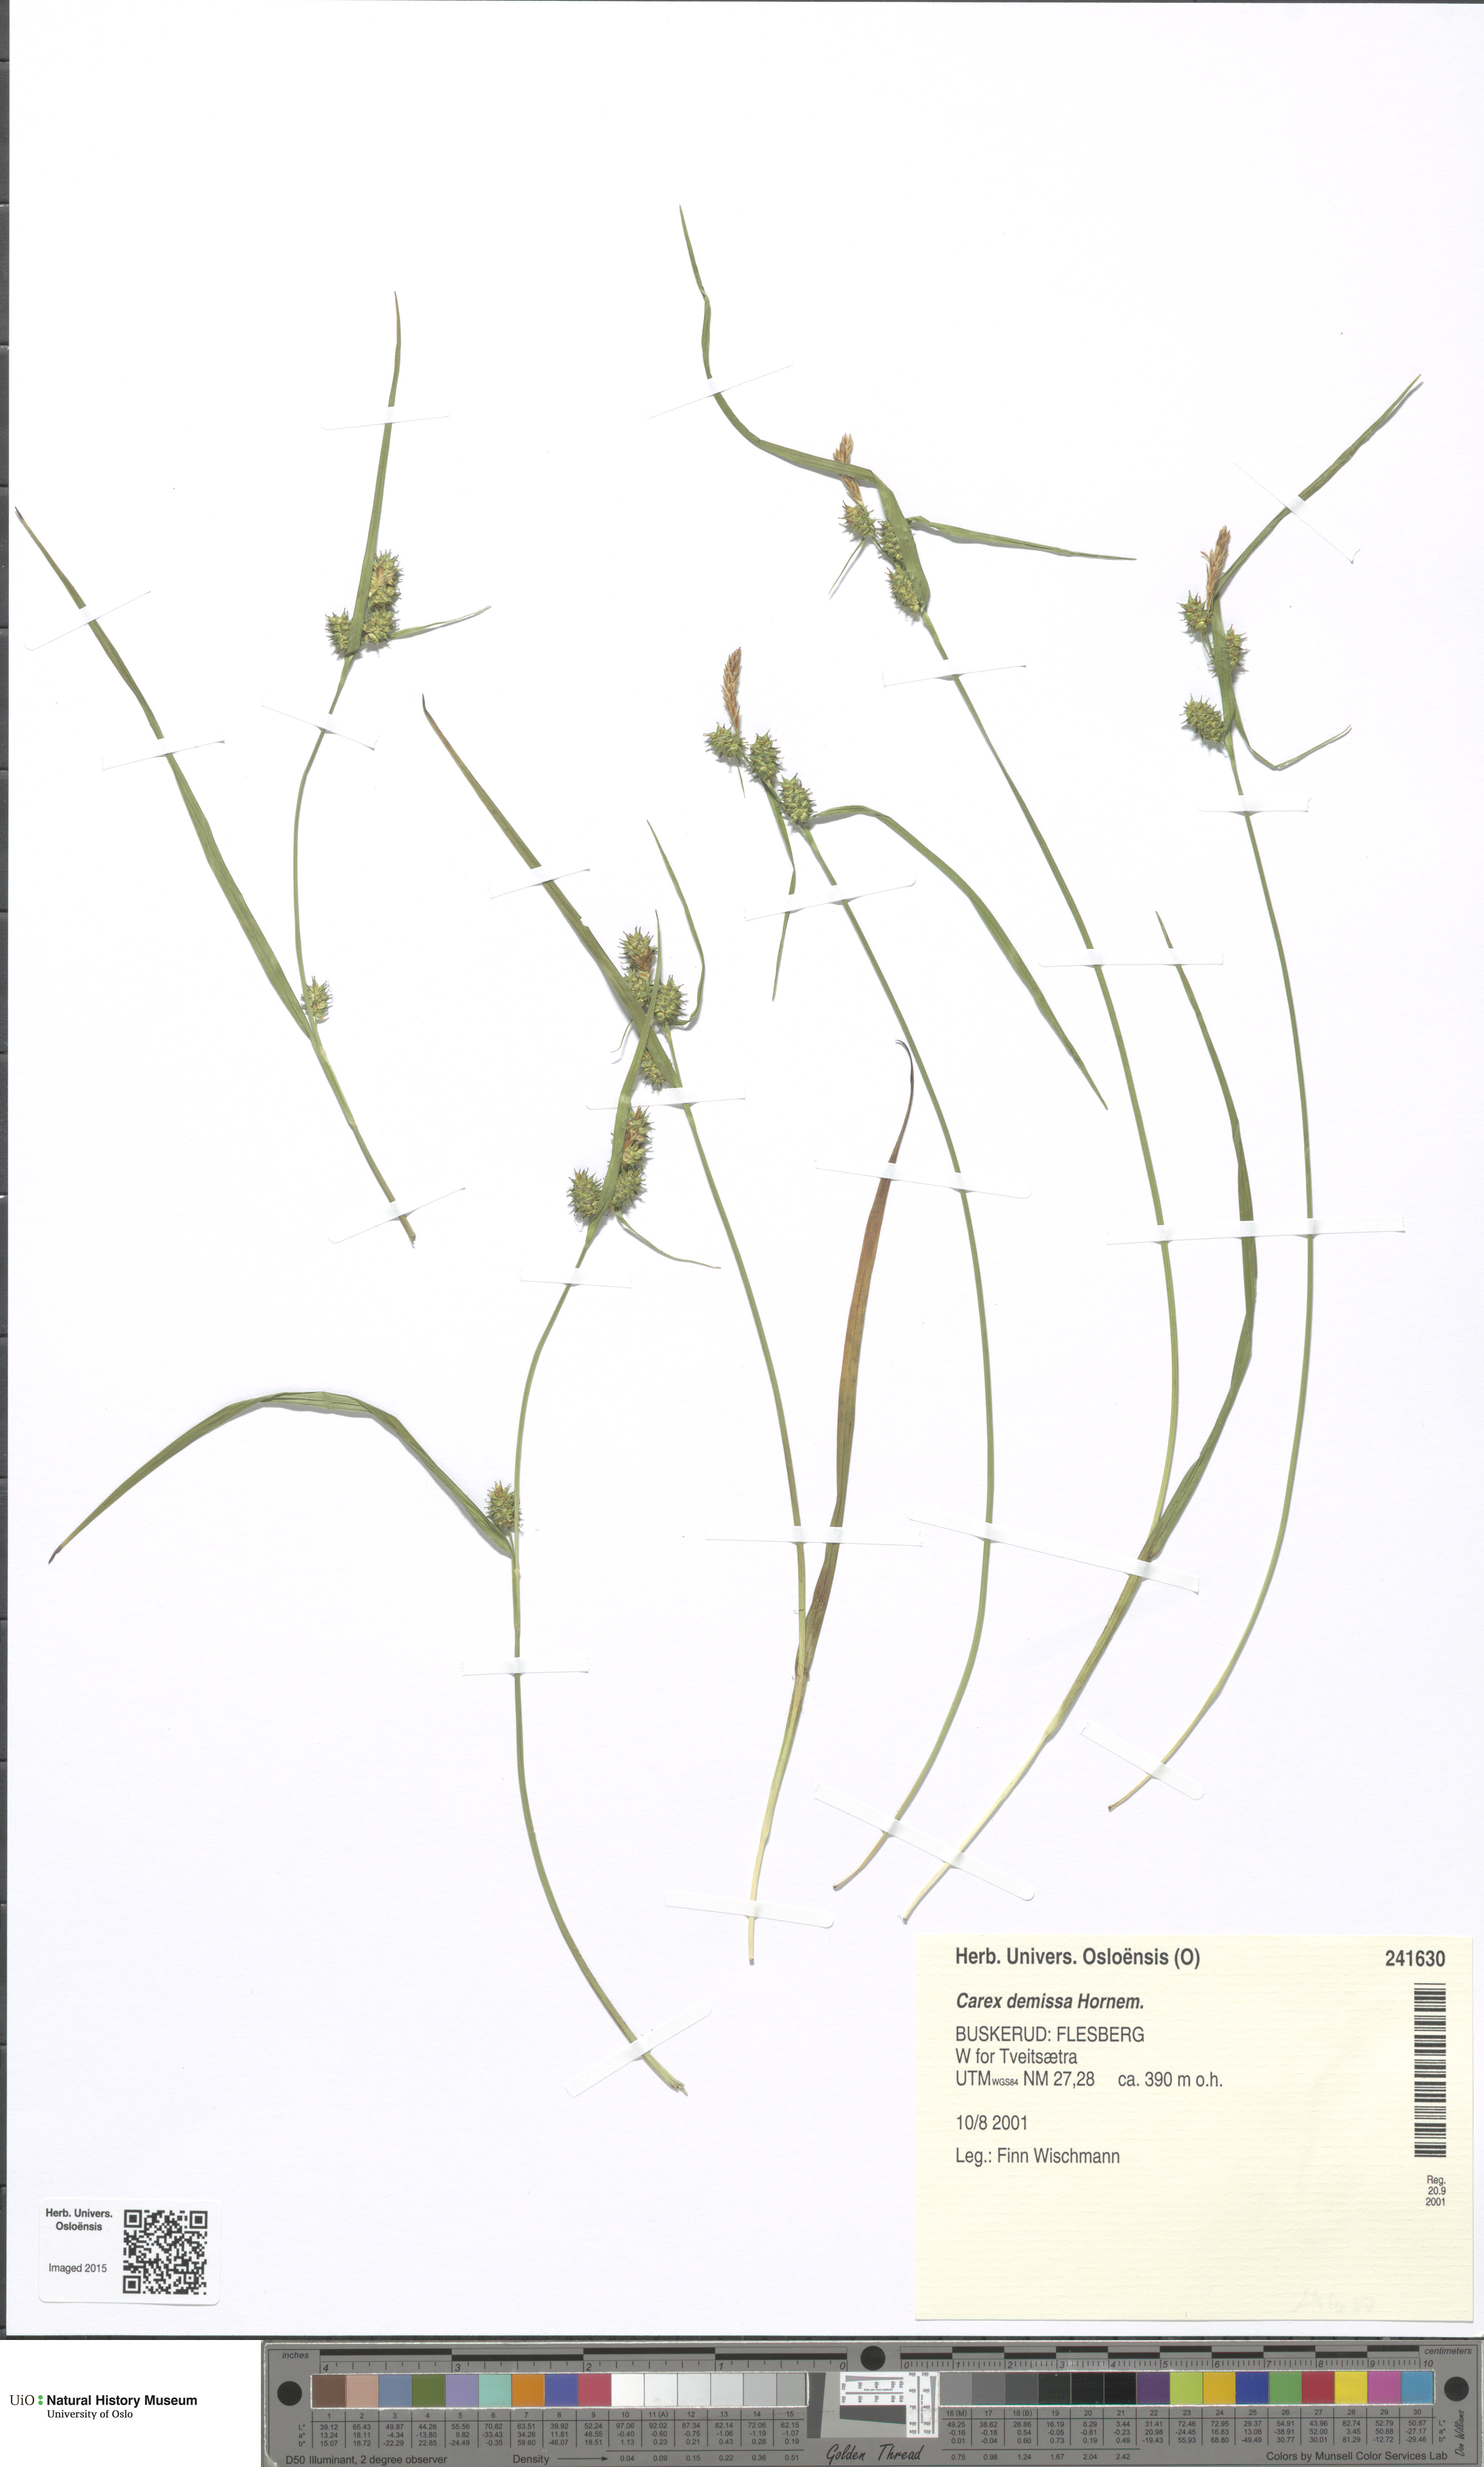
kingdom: Plantae
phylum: Tracheophyta
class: Liliopsida
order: Poales
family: Cyperaceae
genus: Carex
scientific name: Carex demissa
